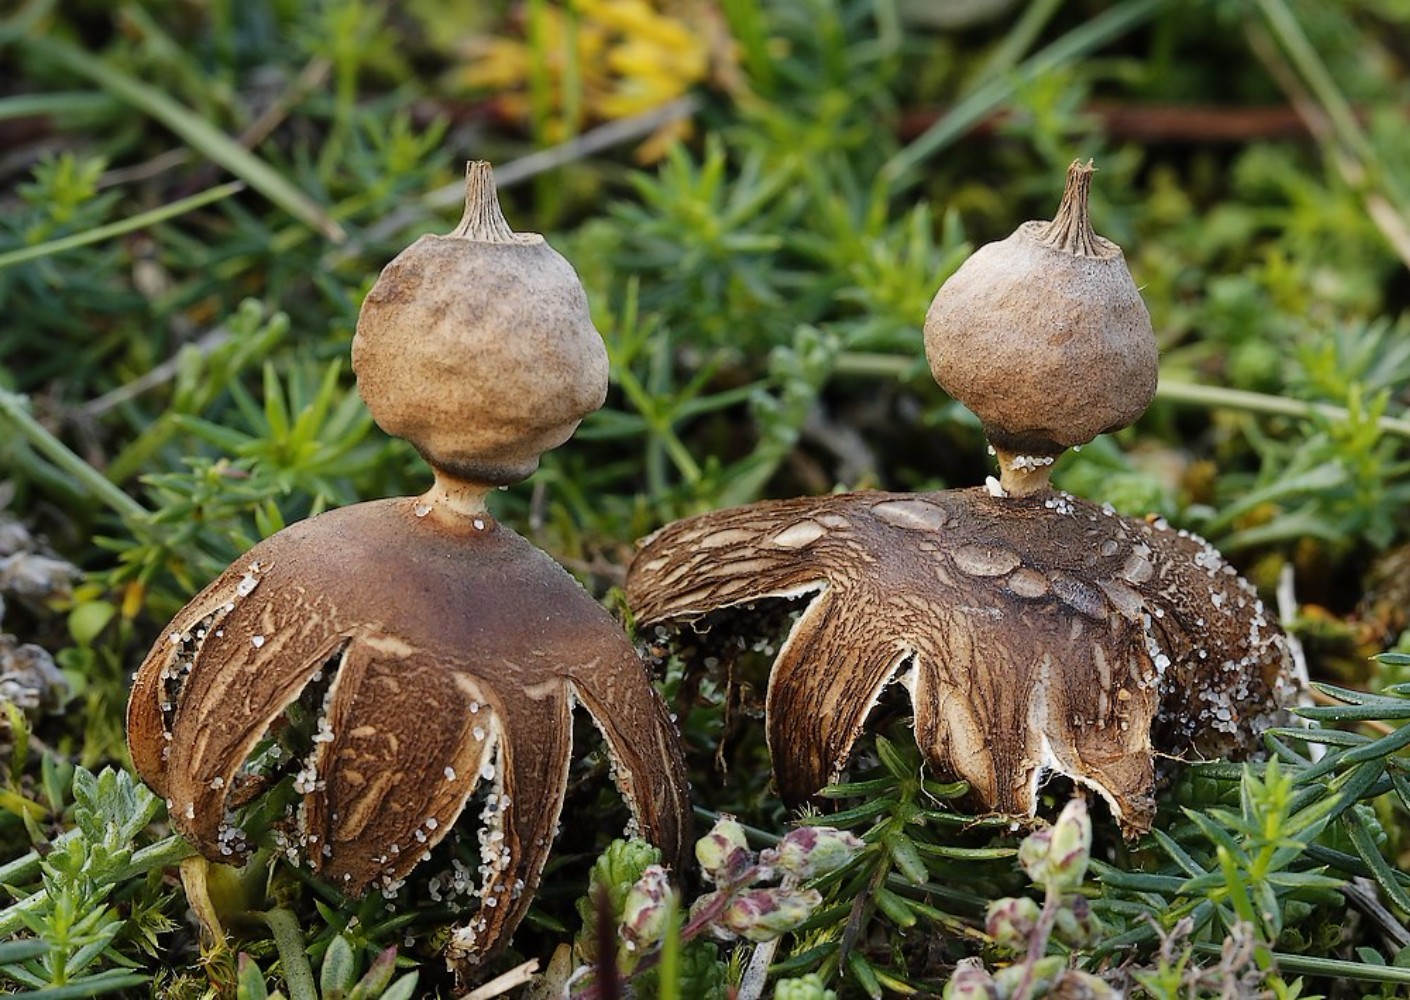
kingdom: Fungi
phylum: Basidiomycota
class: Agaricomycetes
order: Geastrales
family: Geastraceae
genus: Geastrum
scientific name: Geastrum striatum
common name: dværg-stjernebold
